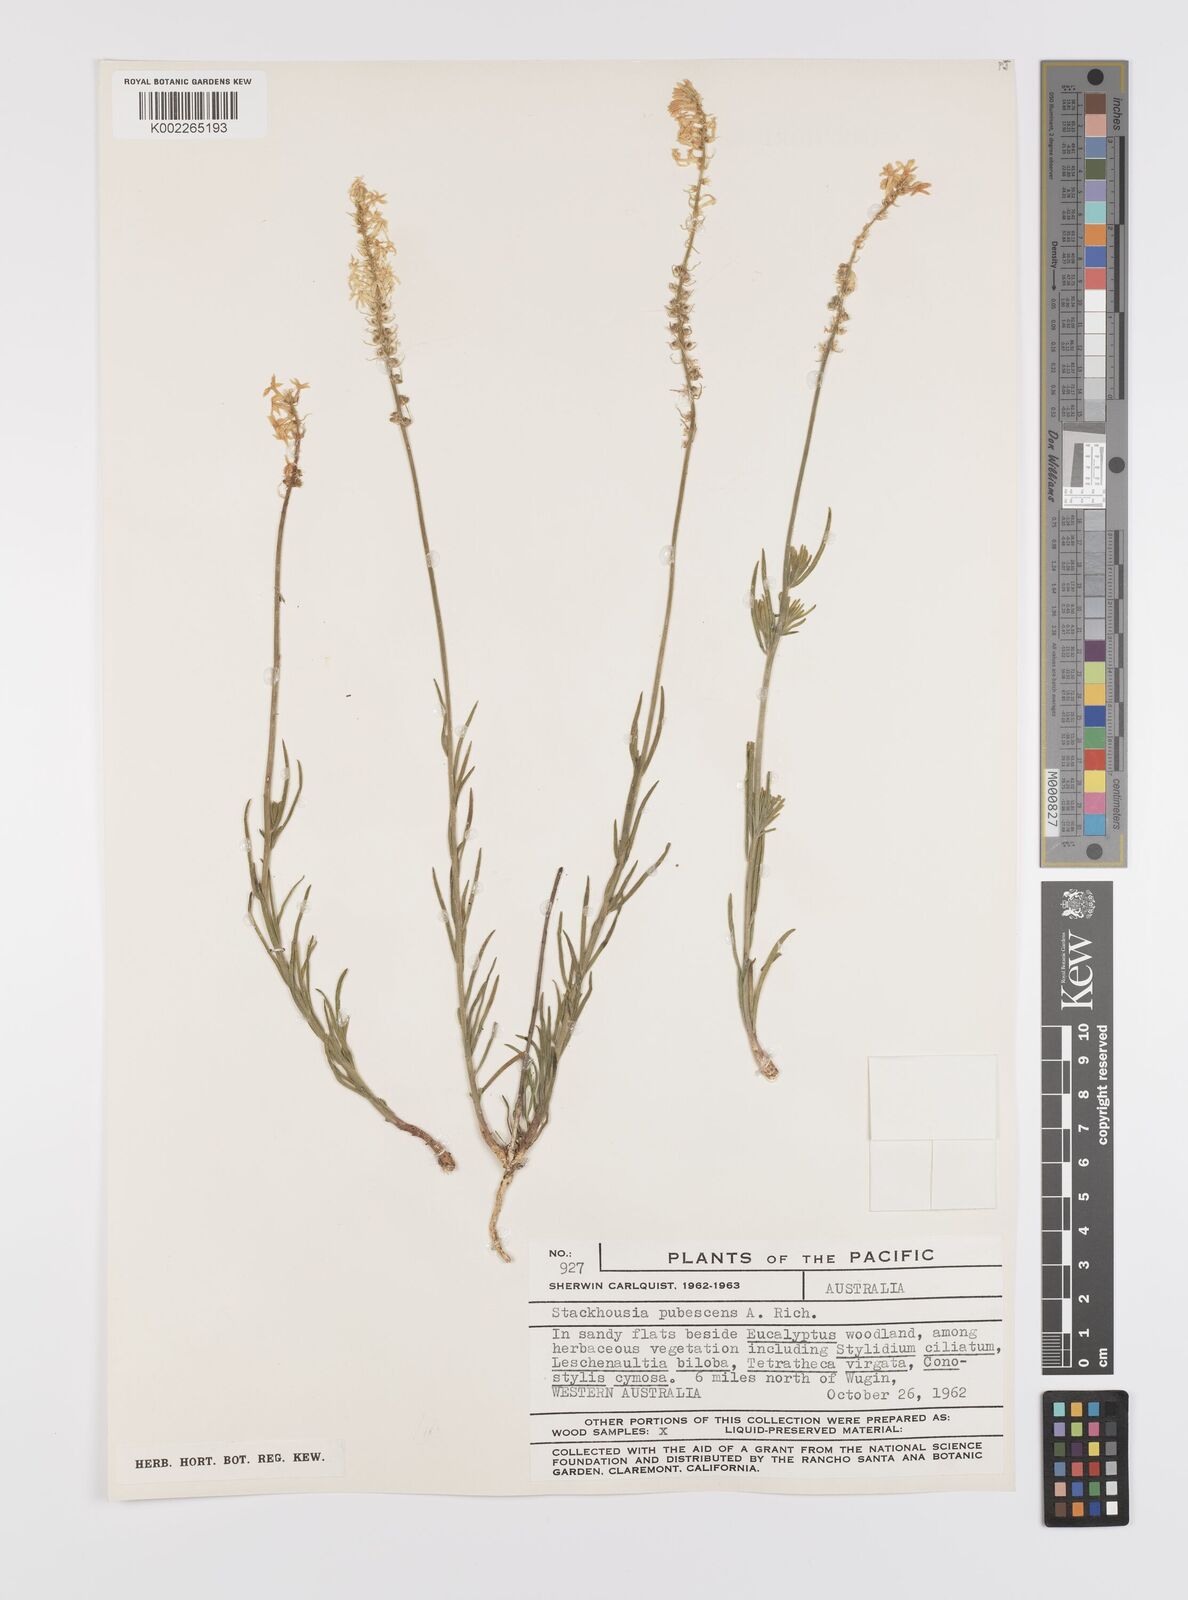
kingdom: Plantae
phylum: Tracheophyta
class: Magnoliopsida
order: Celastrales
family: Celastraceae
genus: Stackhousia
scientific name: Stackhousia monogyna
